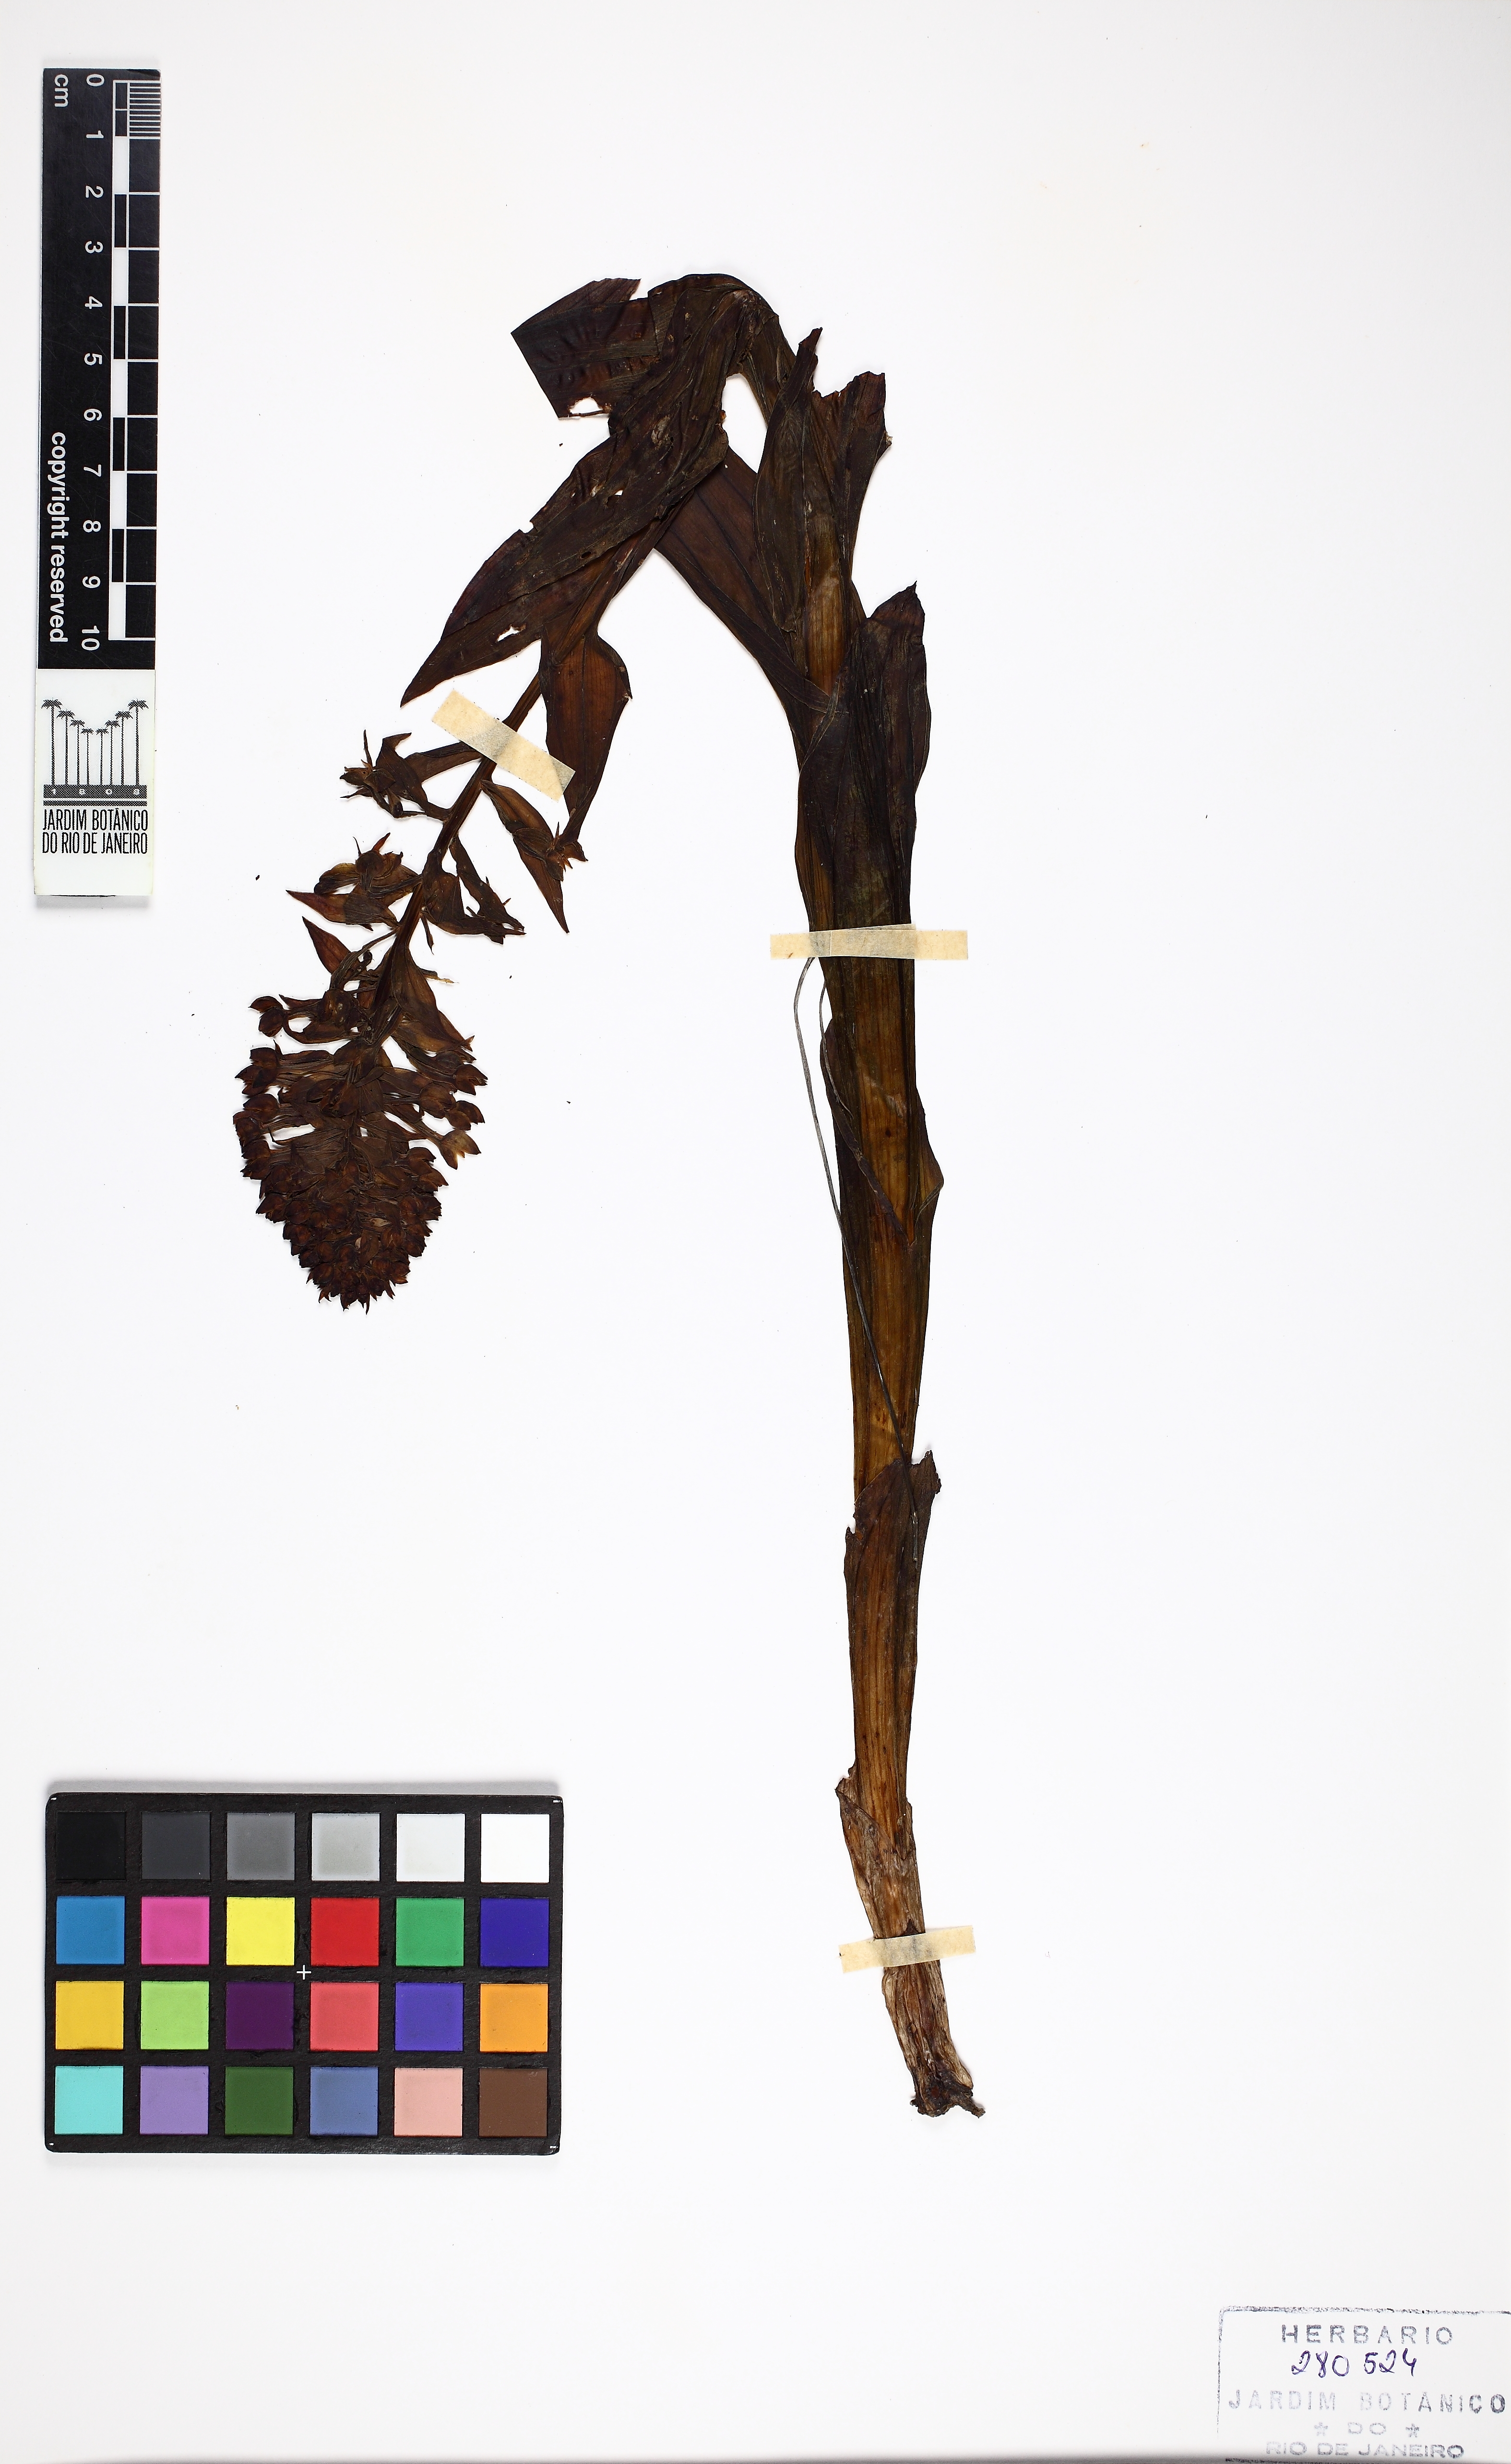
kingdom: Plantae
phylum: Tracheophyta
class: Liliopsida
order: Asparagales
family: Orchidaceae
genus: Habenaria
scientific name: Habenaria paranaensis
